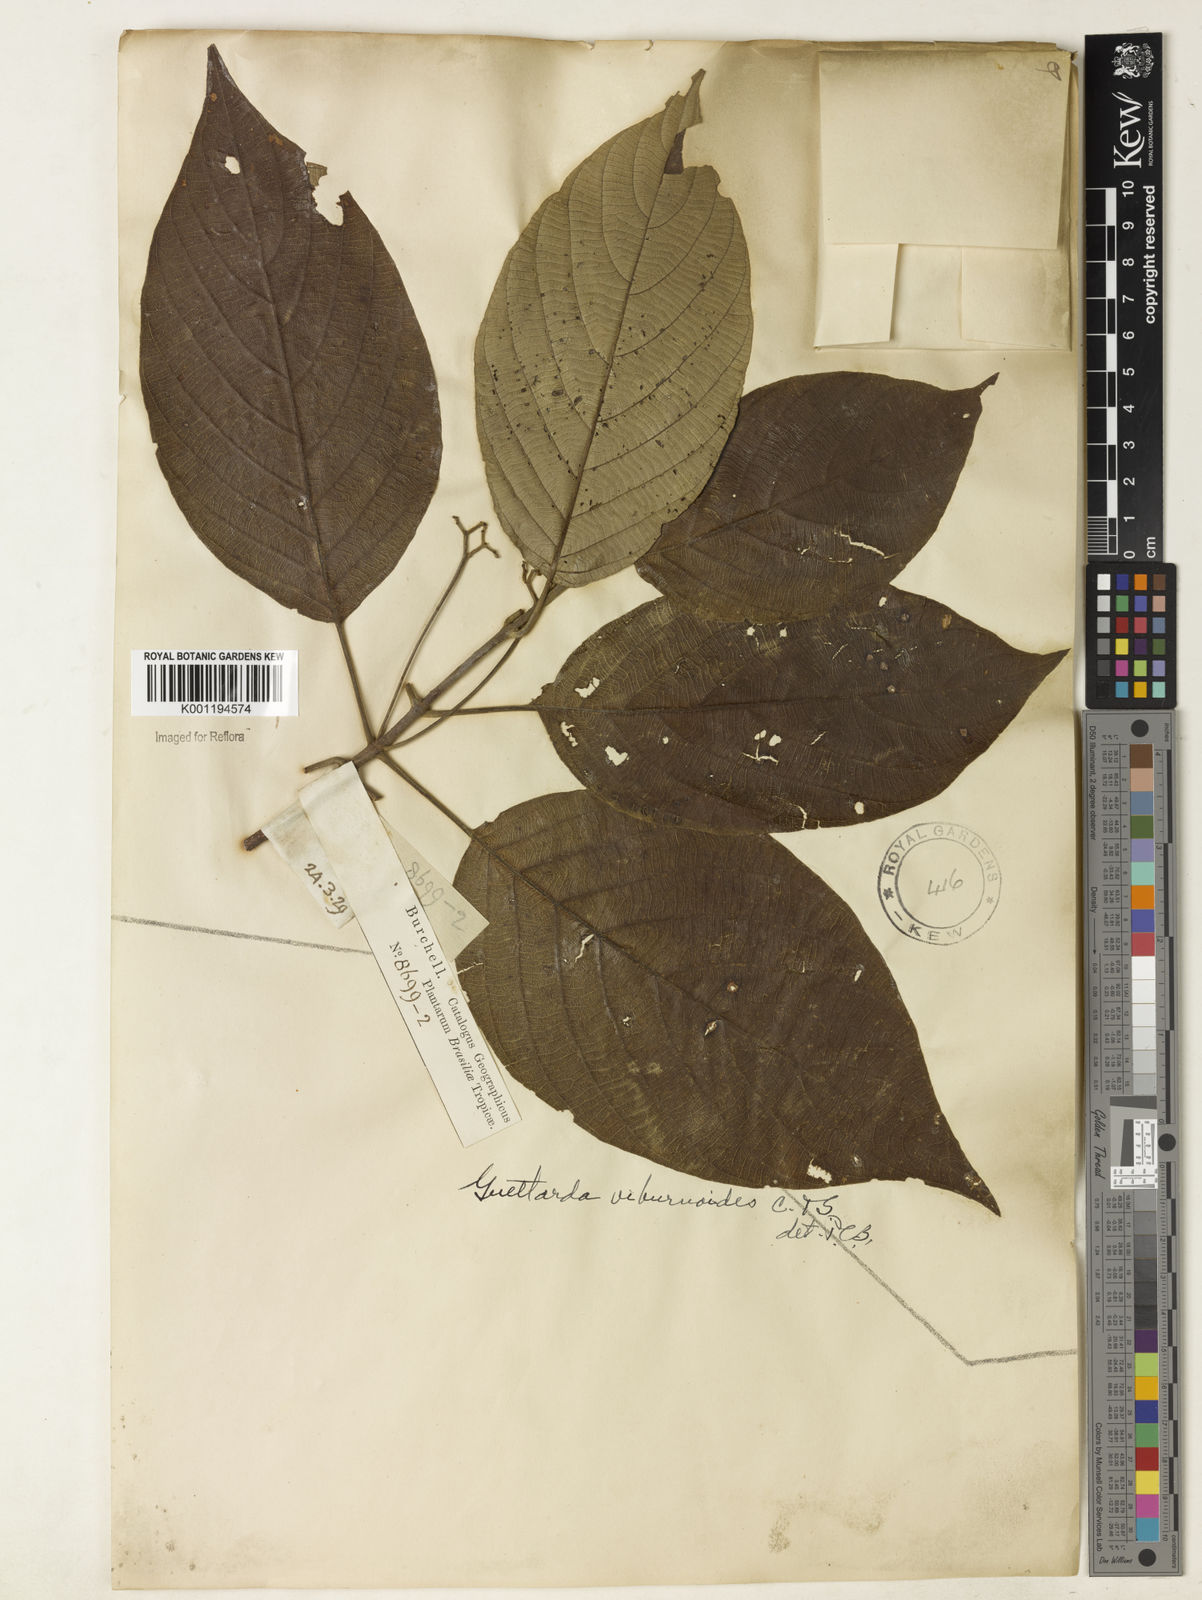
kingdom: Plantae
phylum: Tracheophyta
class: Magnoliopsida
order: Gentianales
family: Rubiaceae
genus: Guettarda
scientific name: Guettarda viburnoides
